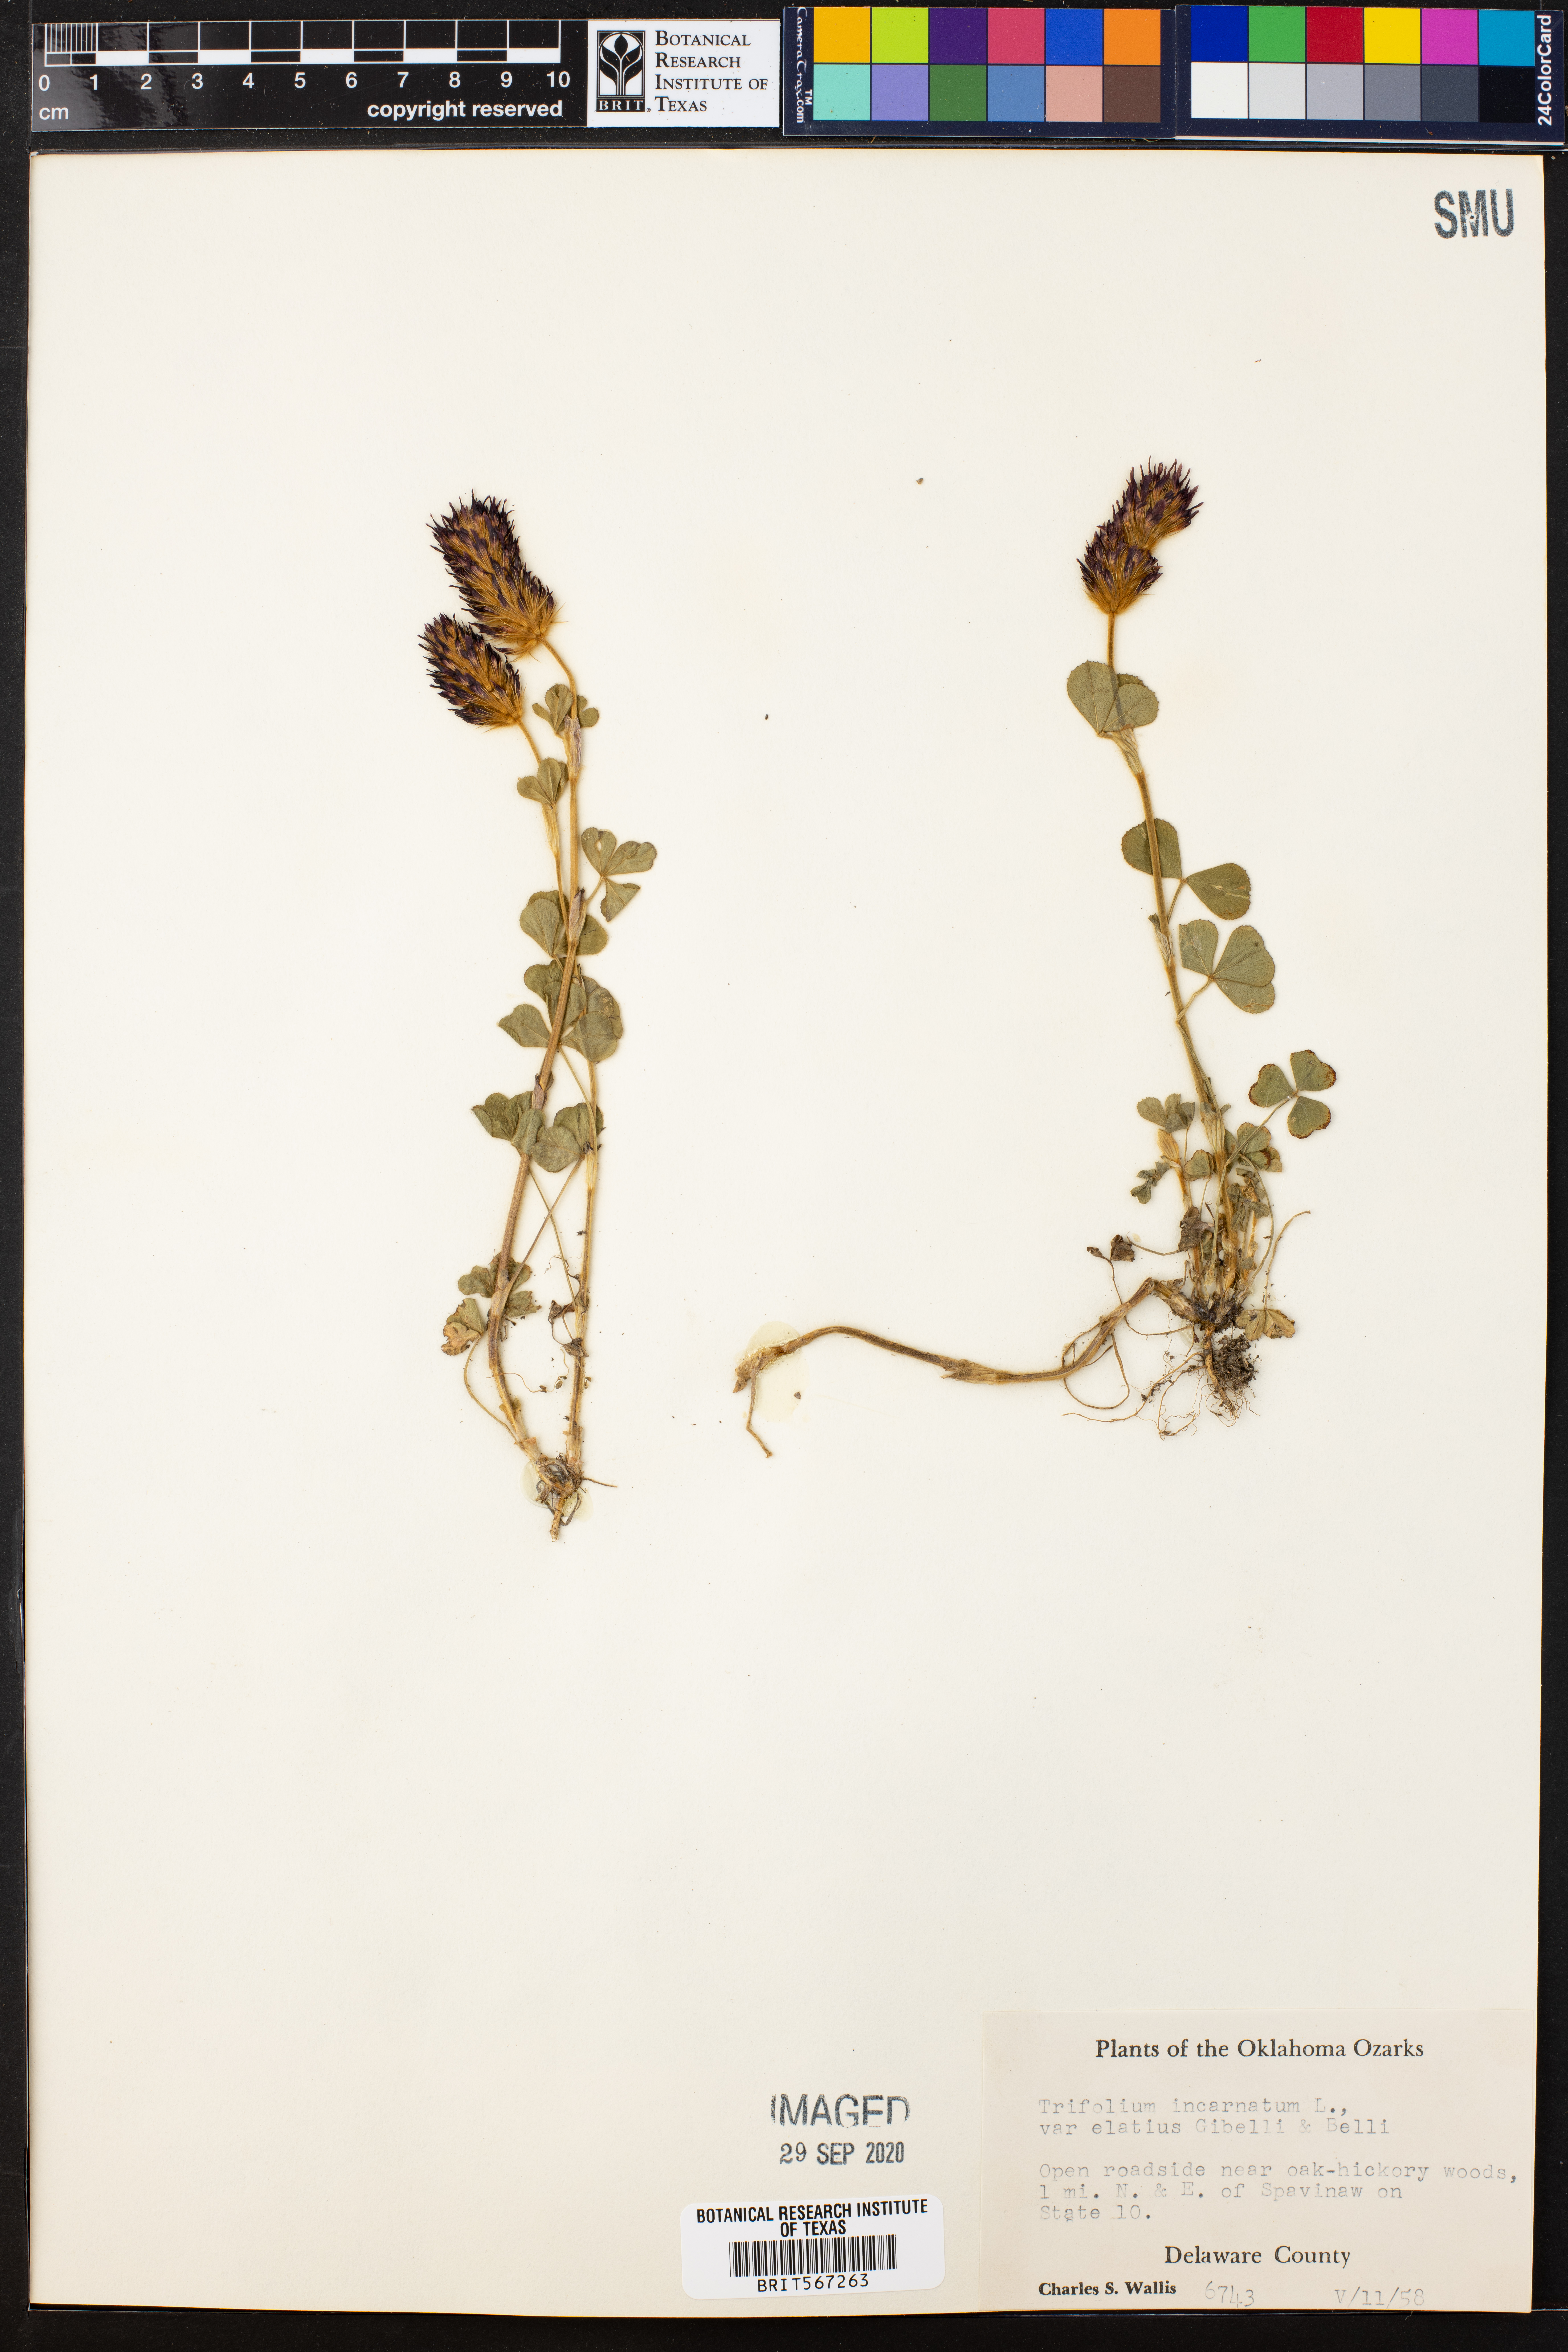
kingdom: Plantae
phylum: Tracheophyta
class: Magnoliopsida
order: Fabales
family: Fabaceae
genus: Trifolium
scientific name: Trifolium incarnatum
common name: Crimson clover
